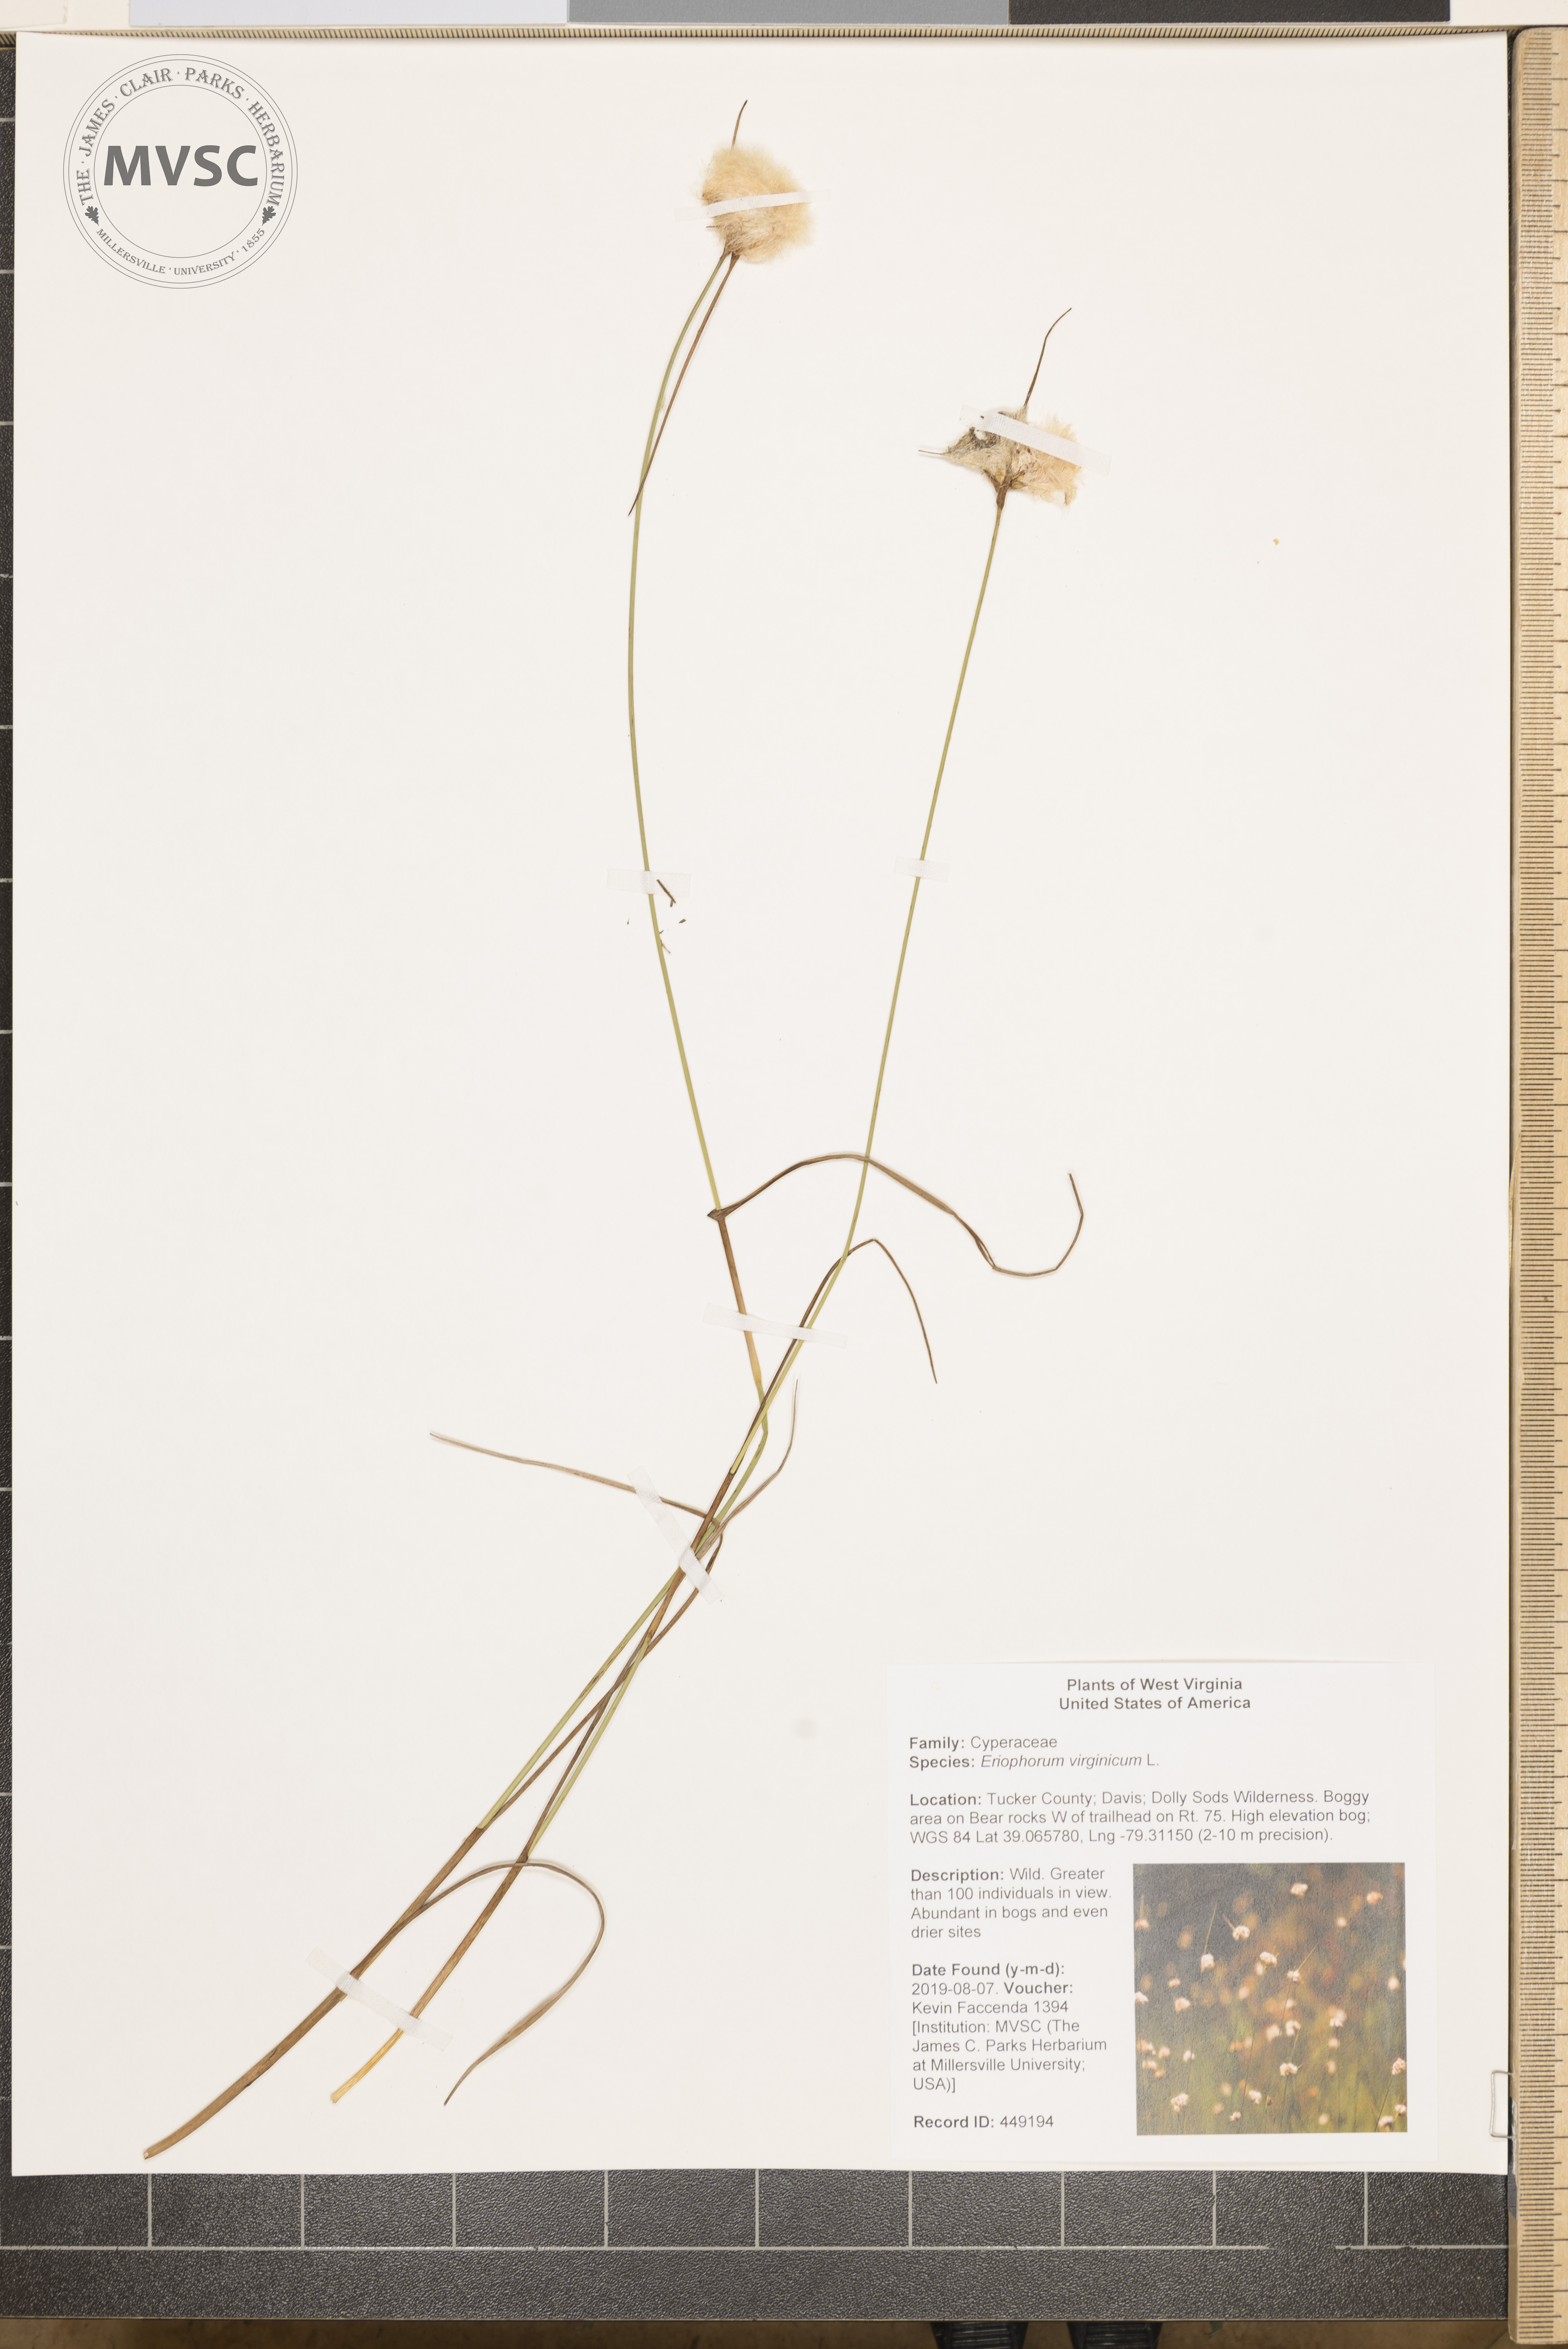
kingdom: Plantae
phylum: Tracheophyta
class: Liliopsida
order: Poales
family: Cyperaceae
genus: Eriophorum
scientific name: Eriophorum virginicum
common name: Tawny cottongrass
